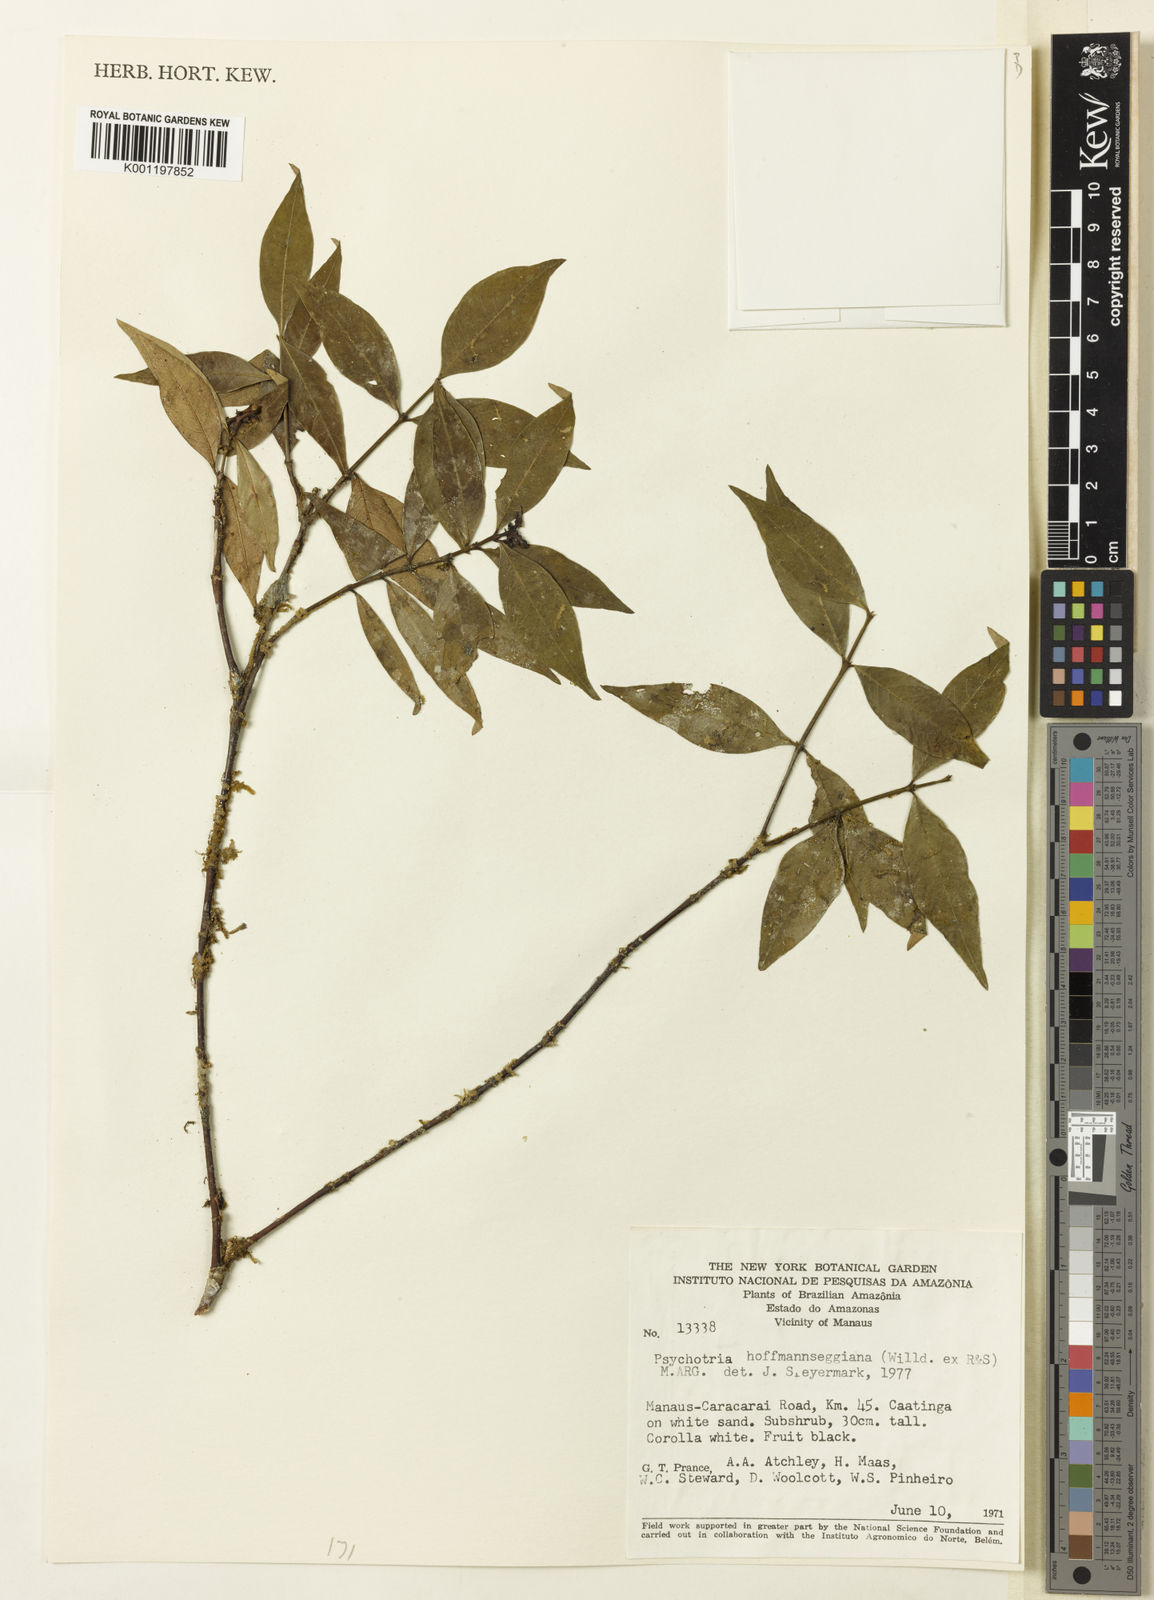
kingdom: Plantae
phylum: Tracheophyta
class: Magnoliopsida
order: Gentianales
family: Rubiaceae
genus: Psychotria
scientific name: Psychotria
